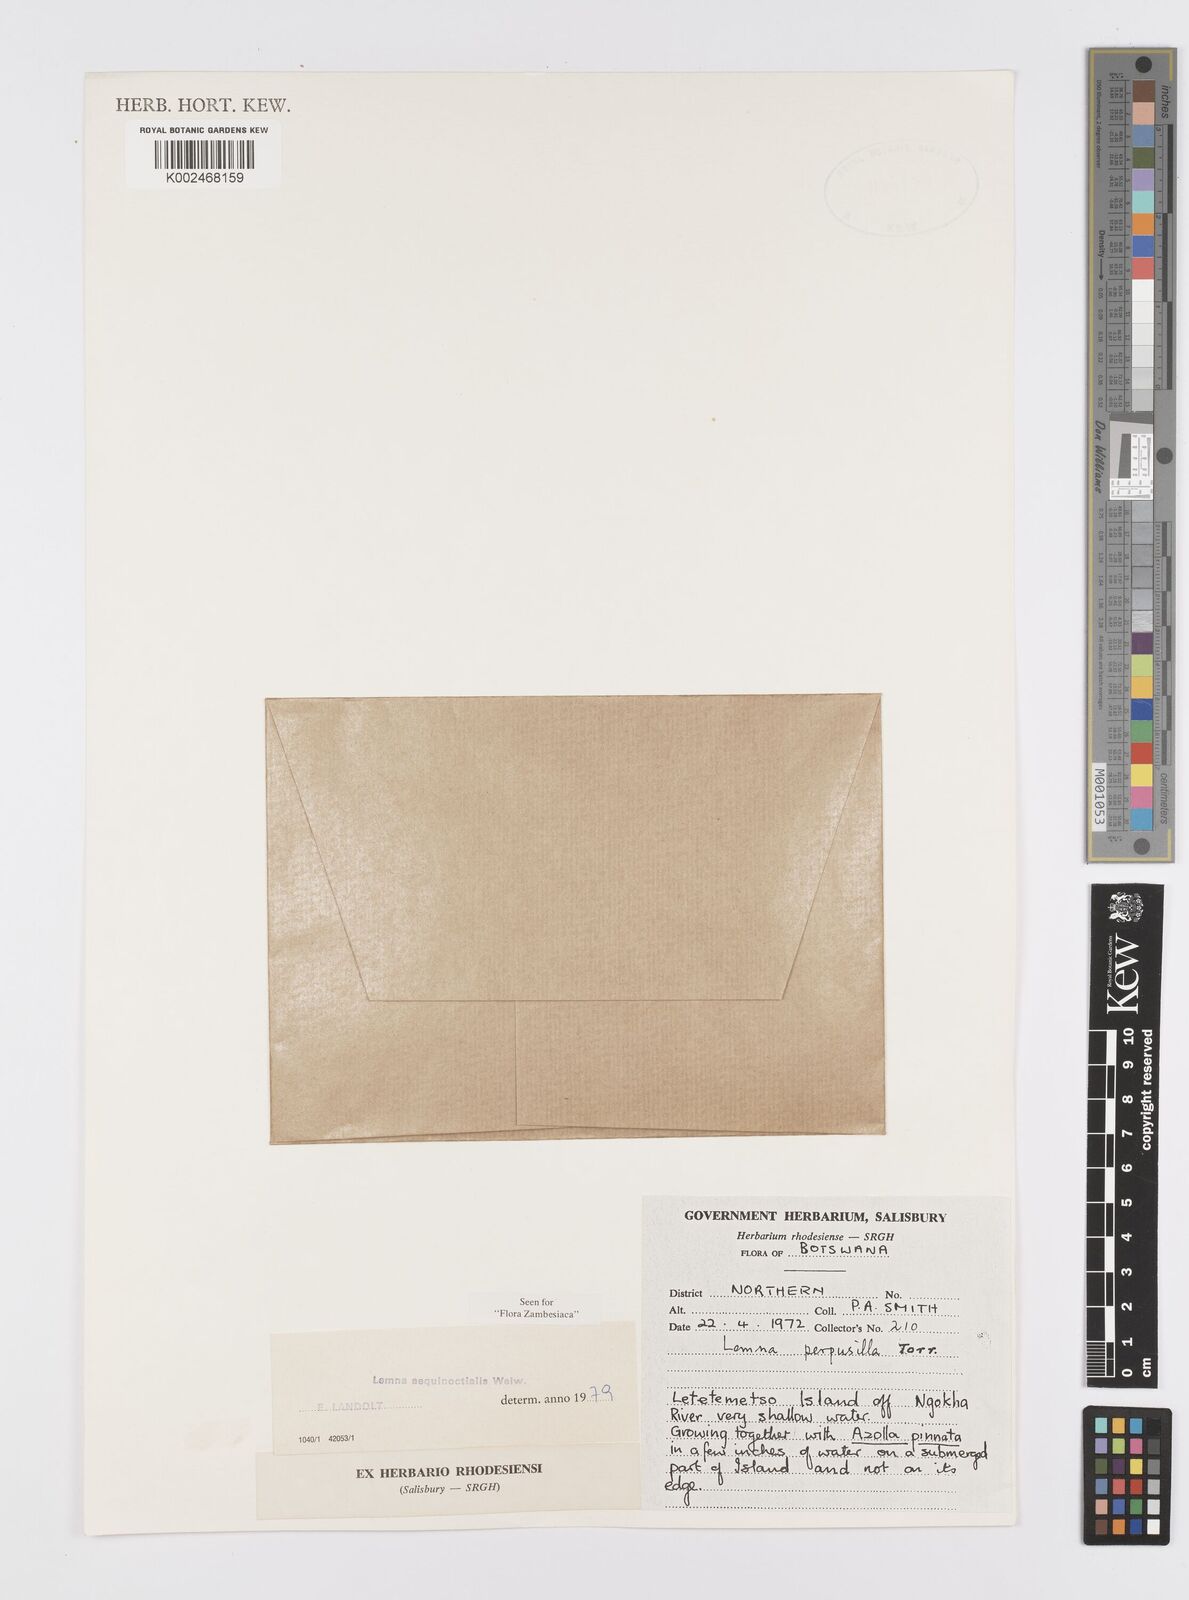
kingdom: Plantae
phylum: Tracheophyta
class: Liliopsida
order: Alismatales
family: Araceae
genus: Lemna
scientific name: Lemna aequinoctialis
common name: Duckweed
